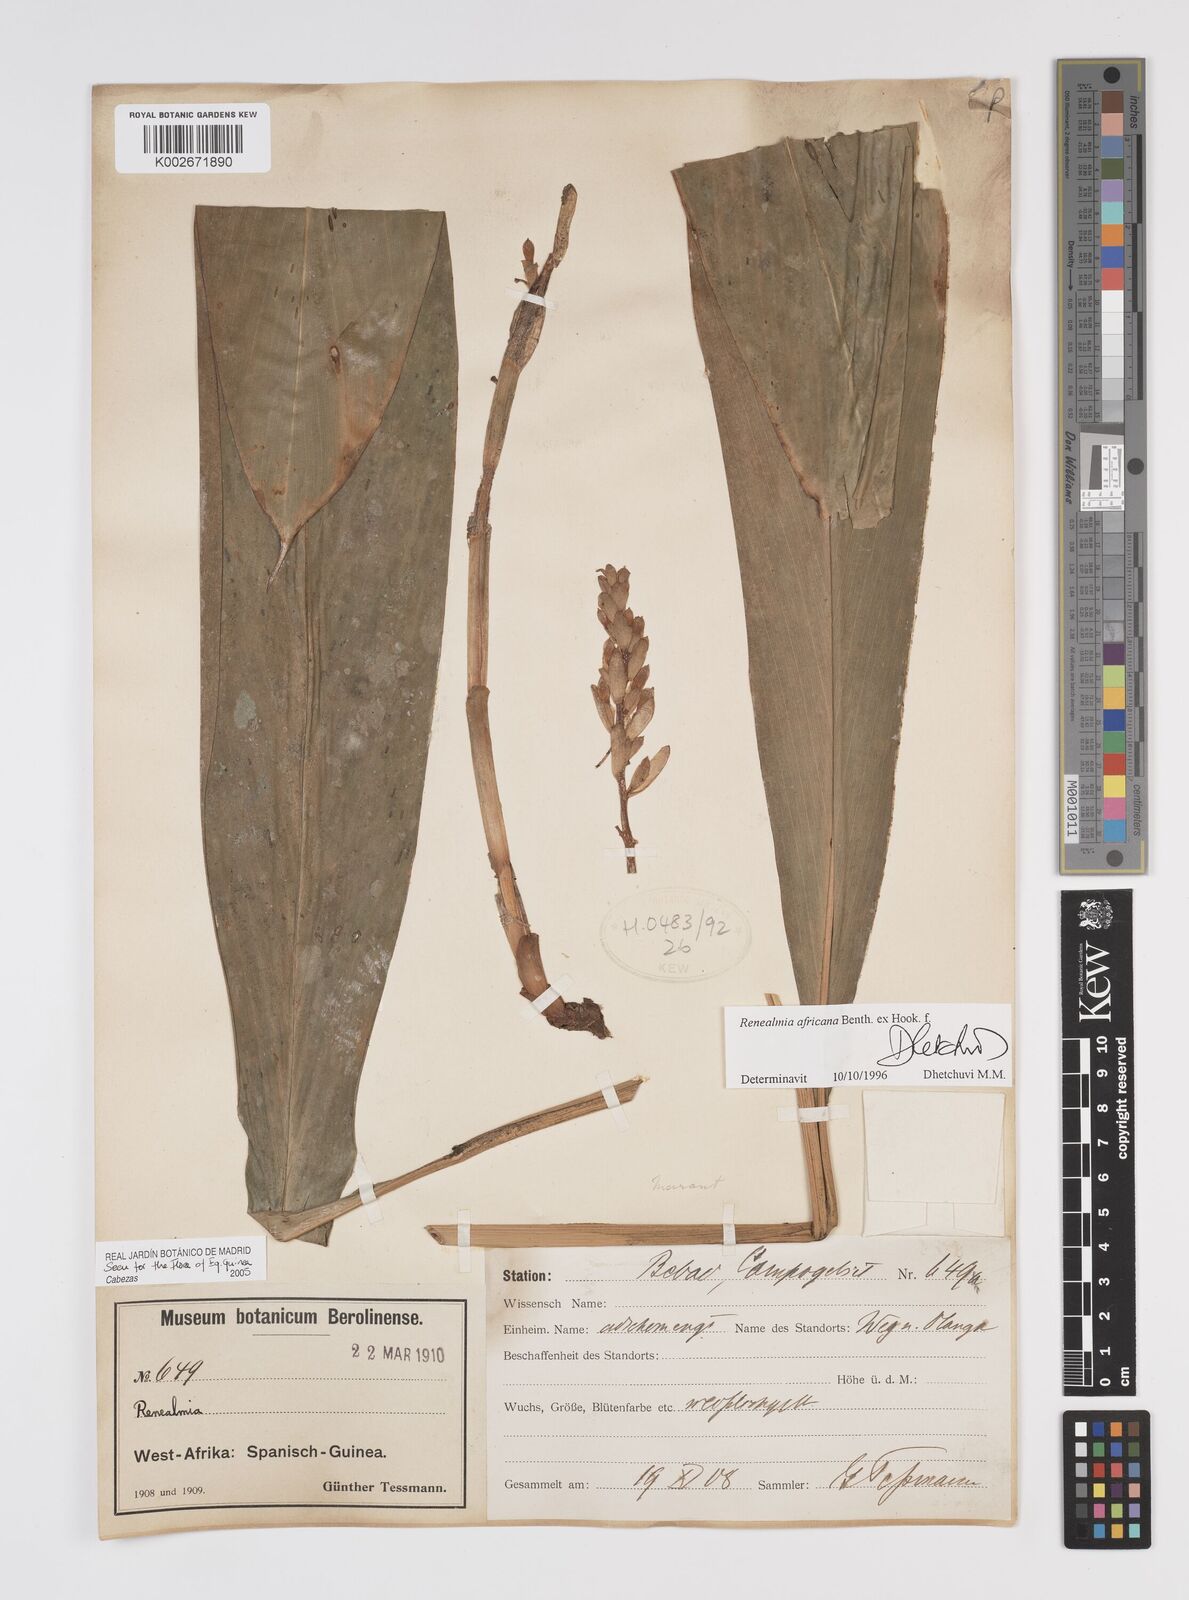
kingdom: Plantae
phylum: Tracheophyta
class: Liliopsida
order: Zingiberales
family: Zingiberaceae
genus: Renealmia
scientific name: Renealmia africana
